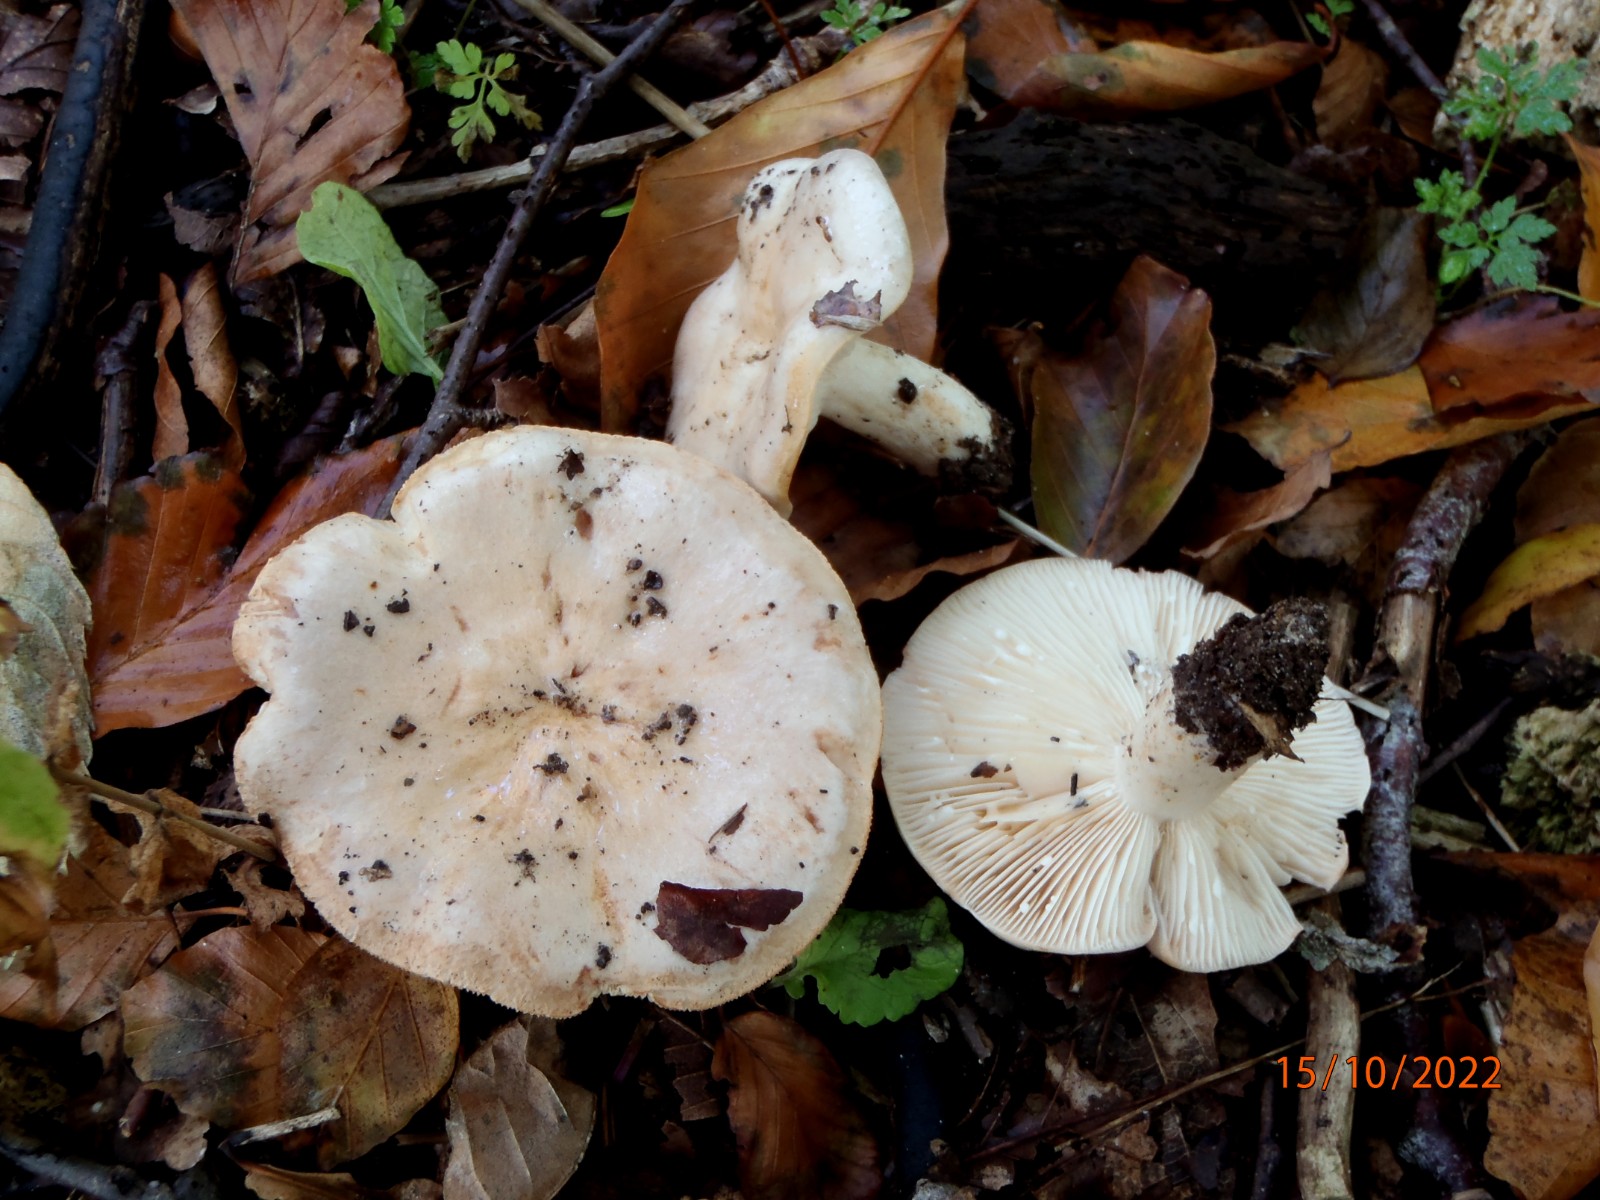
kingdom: Fungi
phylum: Basidiomycota
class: Agaricomycetes
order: Russulales
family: Russulaceae
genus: Lactarius
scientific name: Lactarius pallidus
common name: bleg mælkehat
